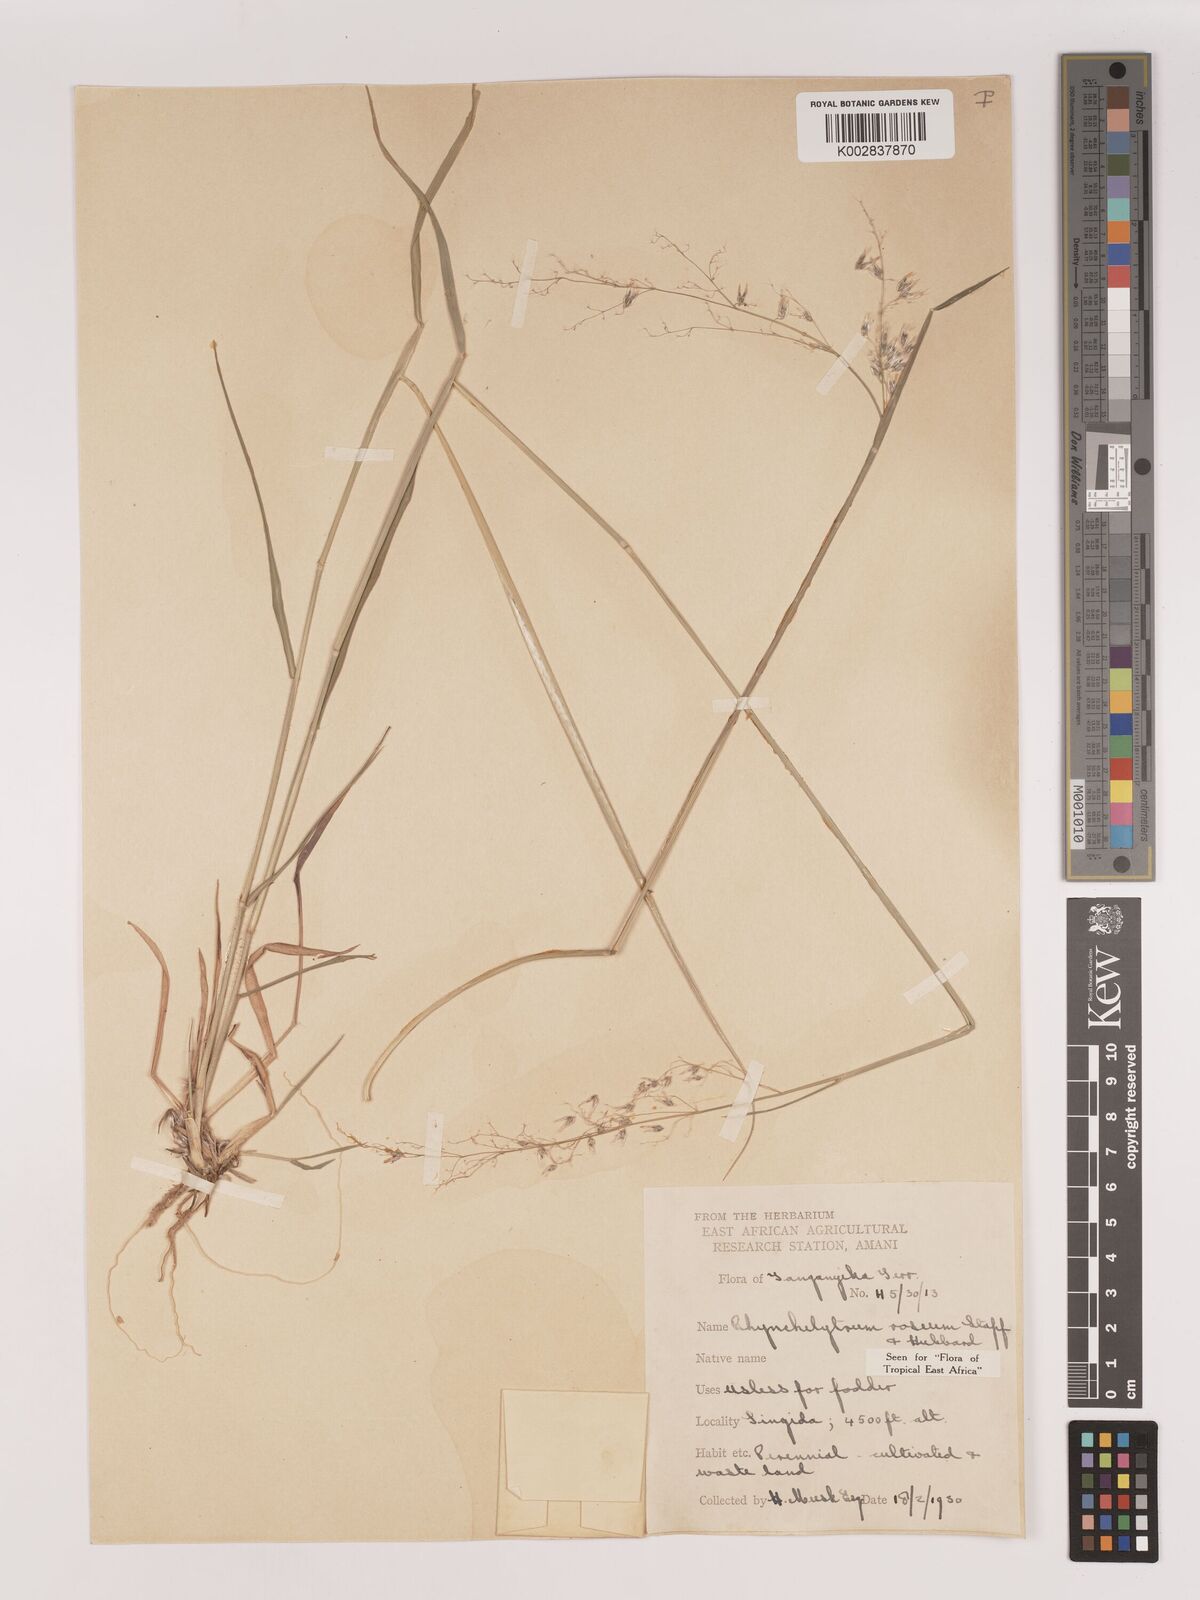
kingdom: Plantae
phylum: Tracheophyta
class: Liliopsida
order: Poales
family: Poaceae
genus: Melinis
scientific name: Melinis repens
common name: Rose natal grass
